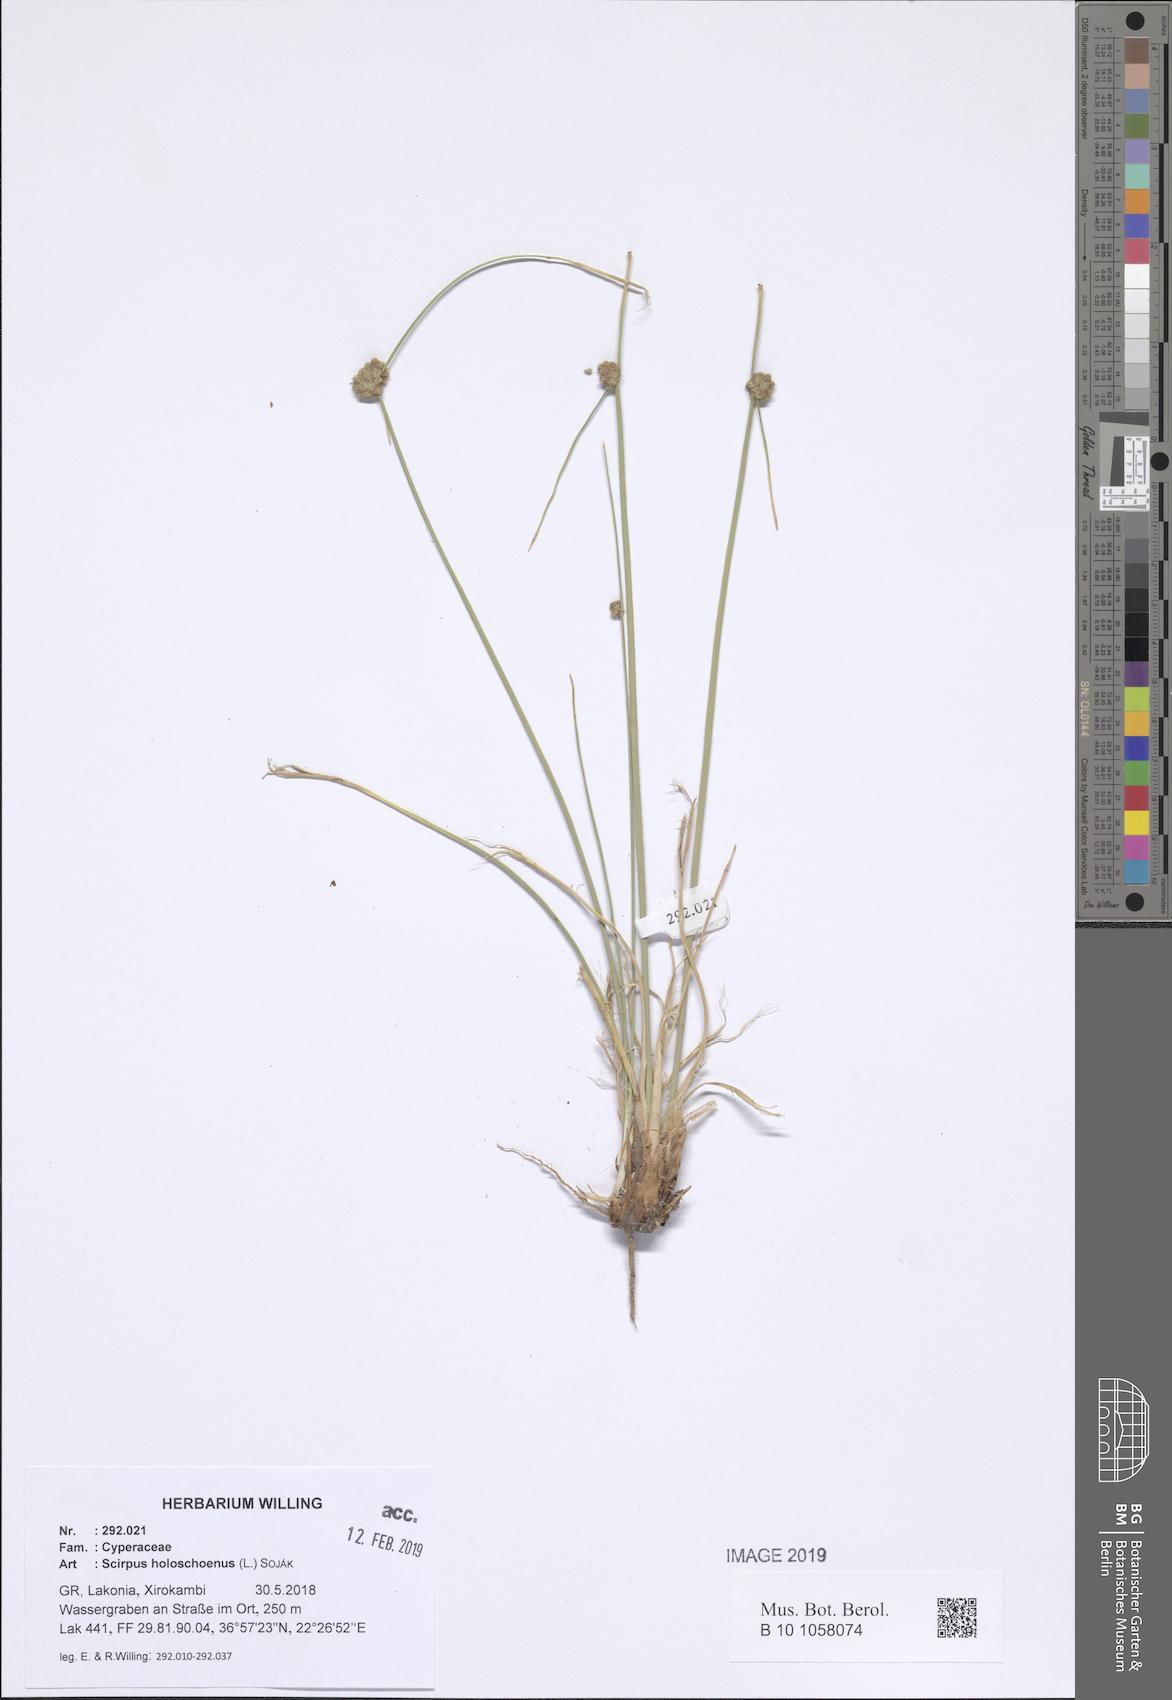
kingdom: Plantae
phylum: Tracheophyta
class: Liliopsida
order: Poales
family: Cyperaceae
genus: Scirpoides
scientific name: Scirpoides holoschoenus
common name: Round-headed club-rush
